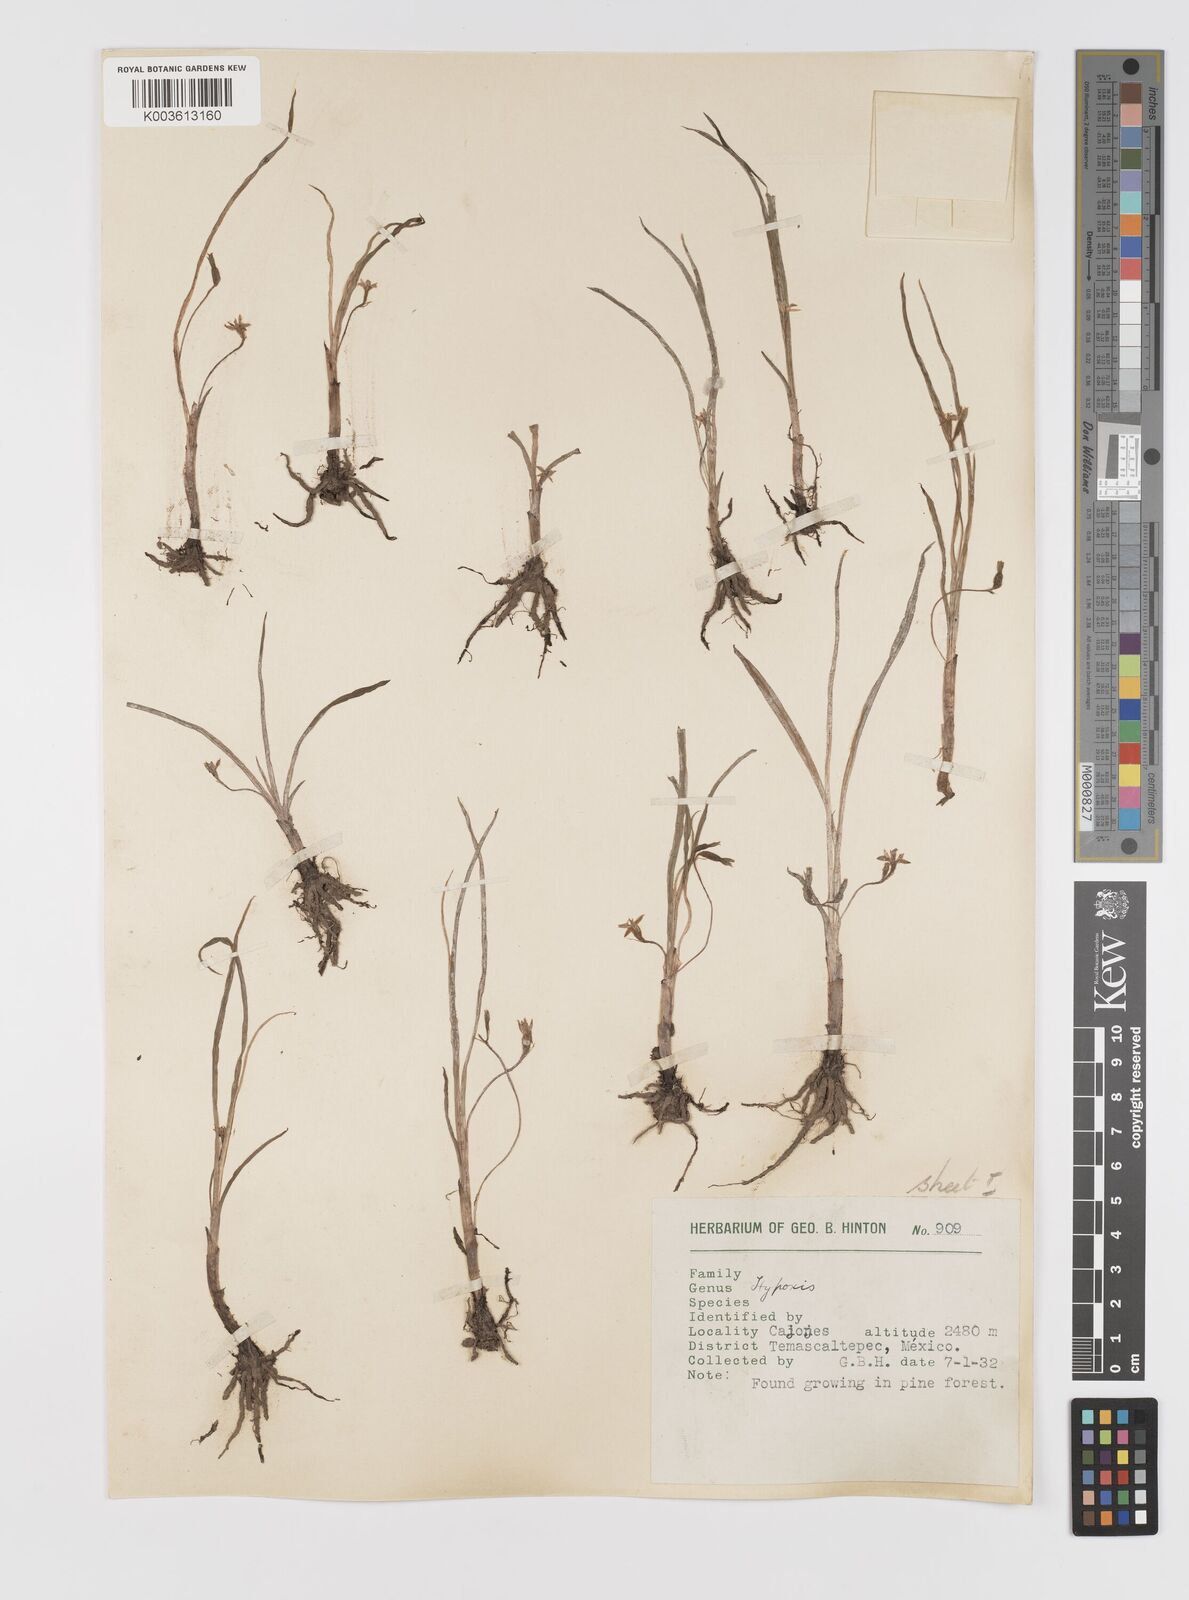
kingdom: Plantae
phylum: Tracheophyta
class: Liliopsida
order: Asparagales
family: Hypoxidaceae
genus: Hypoxis
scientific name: Hypoxis decumbens
